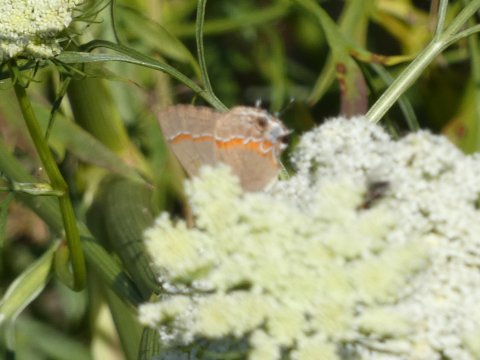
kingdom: Animalia
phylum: Arthropoda
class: Insecta
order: Lepidoptera
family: Lycaenidae
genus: Calycopis
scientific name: Calycopis cecrops
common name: Red-banded Hairstreak
